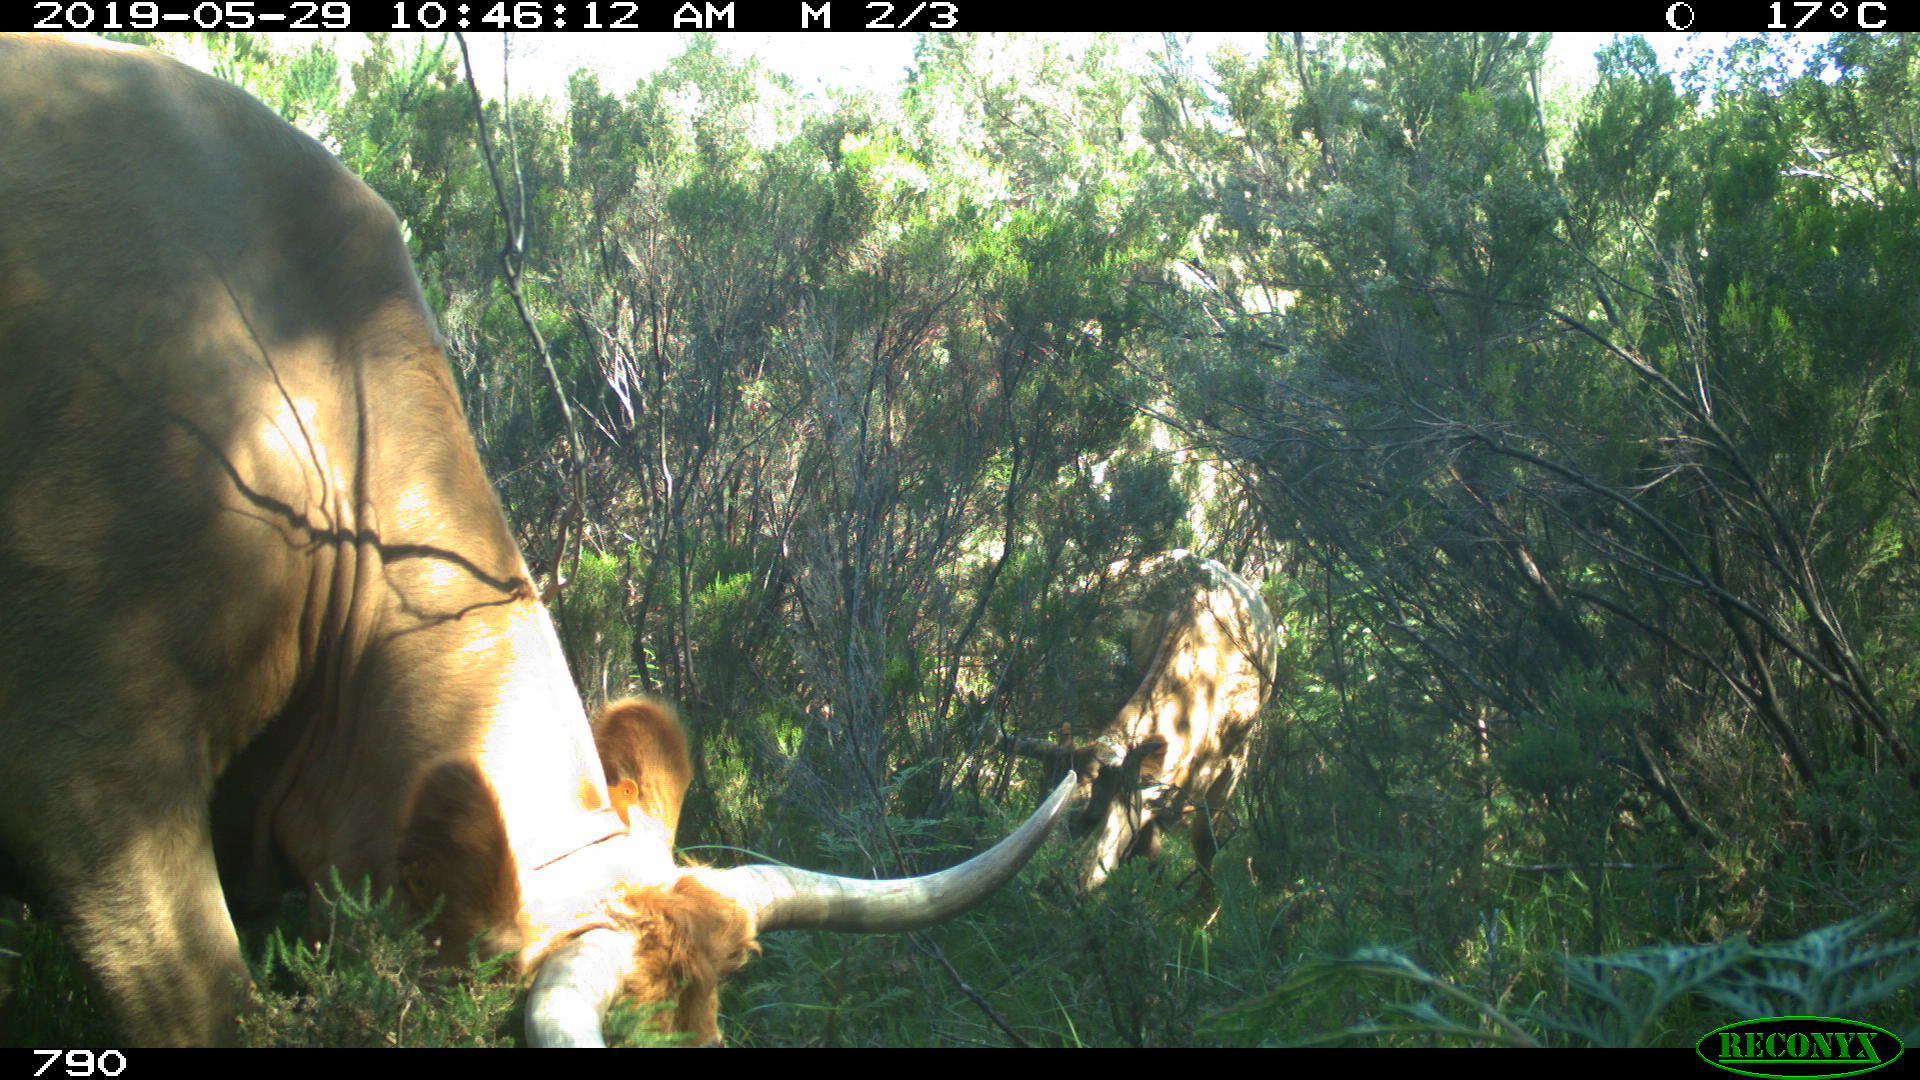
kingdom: Animalia
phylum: Chordata
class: Mammalia
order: Artiodactyla
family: Bovidae
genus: Bos
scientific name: Bos taurus
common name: Domesticated cattle
